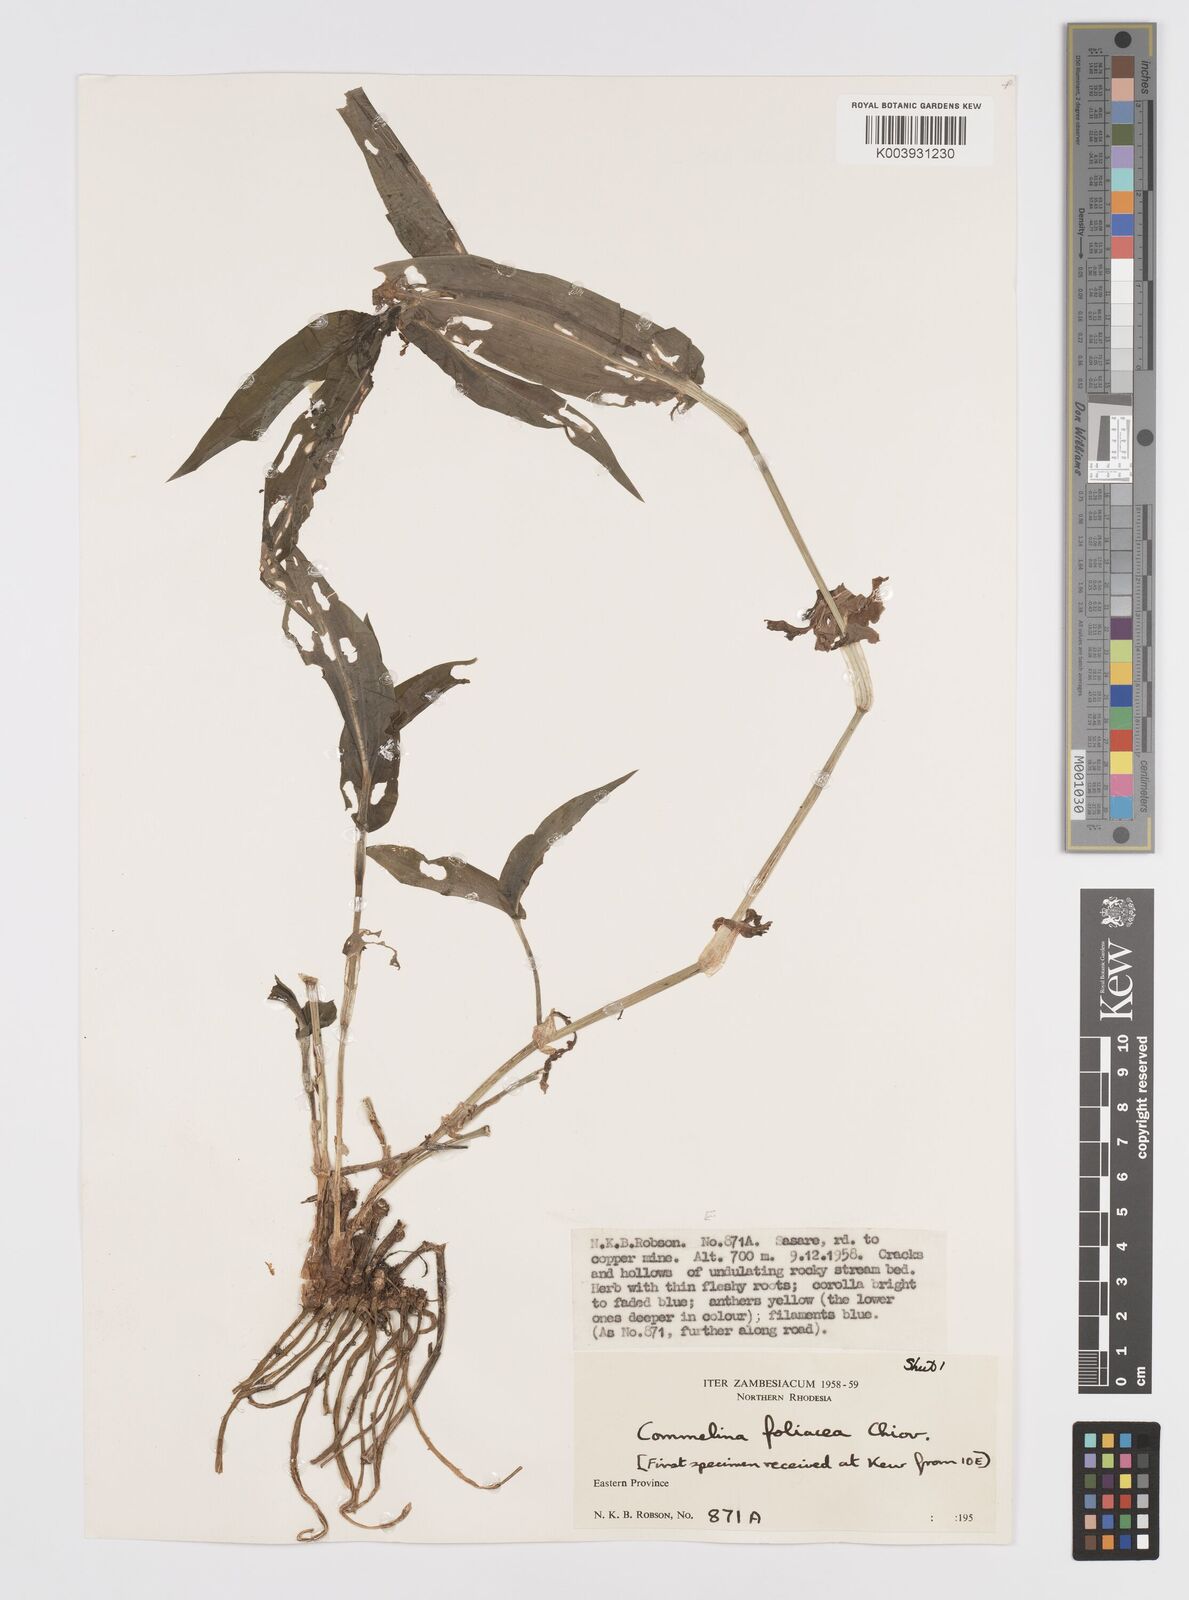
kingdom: Plantae
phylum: Tracheophyta
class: Liliopsida
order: Commelinales
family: Commelinaceae
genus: Commelina
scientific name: Commelina foliacea
